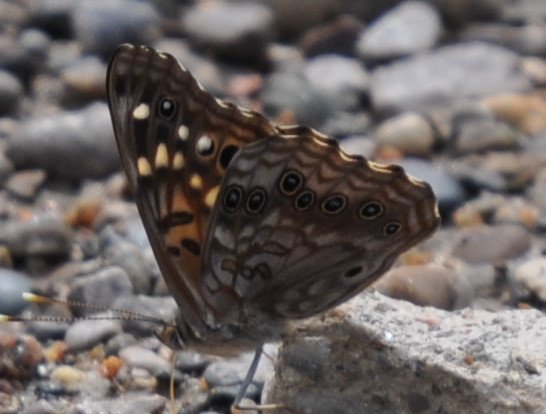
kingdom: Animalia
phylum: Arthropoda
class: Insecta
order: Lepidoptera
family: Nymphalidae
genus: Asterocampa
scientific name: Asterocampa celtis
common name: Hackberry Emperor
